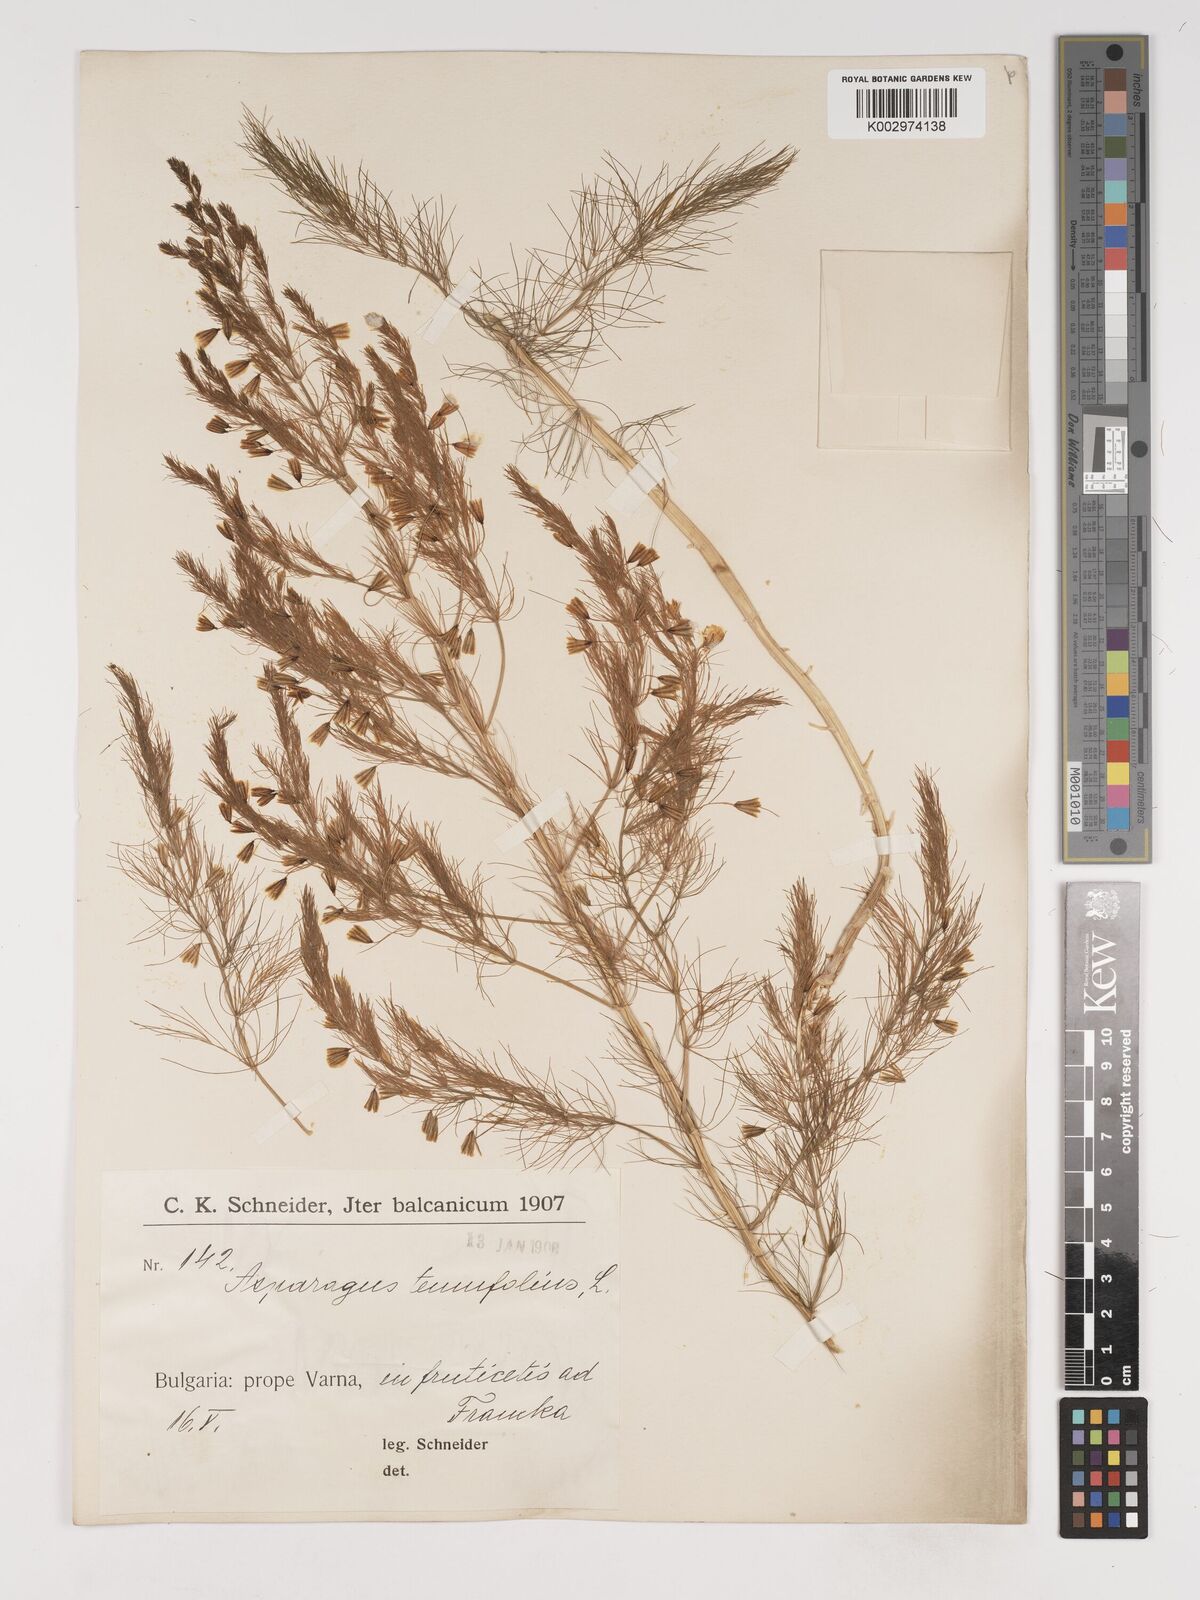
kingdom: Plantae
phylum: Tracheophyta
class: Liliopsida
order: Asparagales
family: Asparagaceae
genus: Asparagus
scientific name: Asparagus tenuifolius
